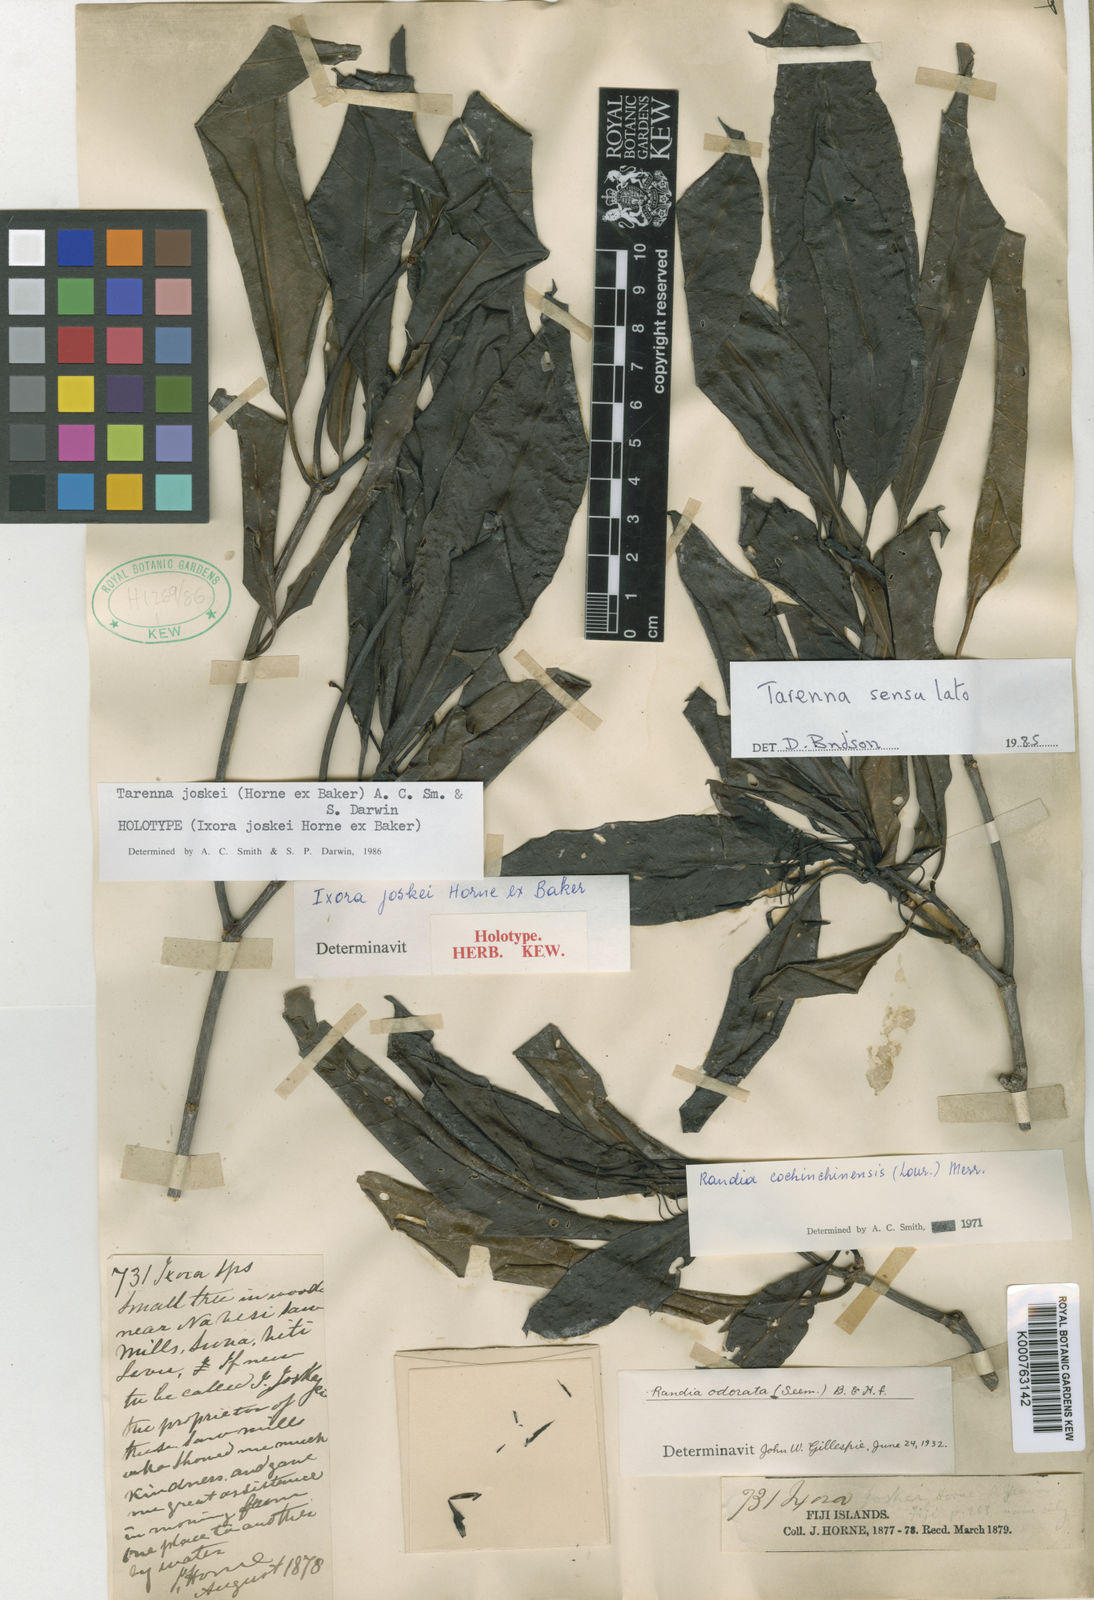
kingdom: Plantae
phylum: Tracheophyta
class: Magnoliopsida
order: Gentianales
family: Rubiaceae
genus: Tarenna
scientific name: Tarenna joskei
